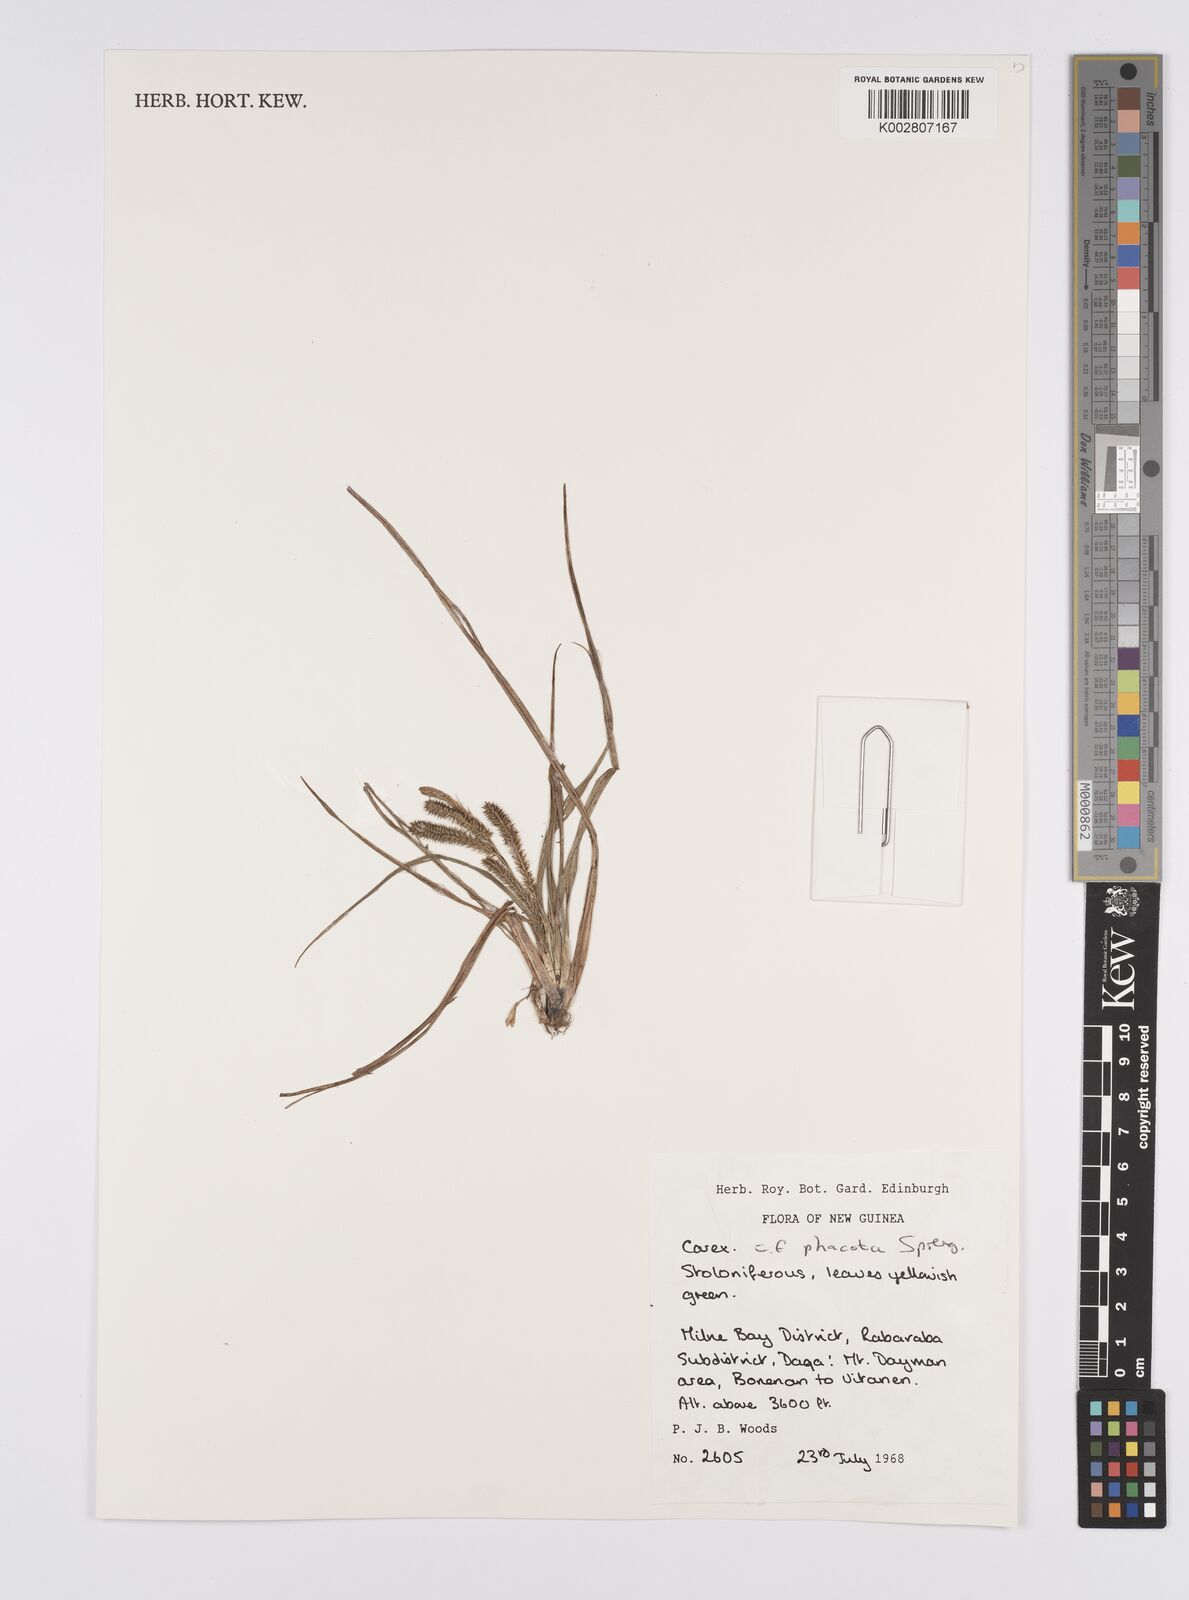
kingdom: Plantae
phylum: Tracheophyta
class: Liliopsida
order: Poales
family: Cyperaceae
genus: Carex
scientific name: Carex phacota
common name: Lakeshore sedge
